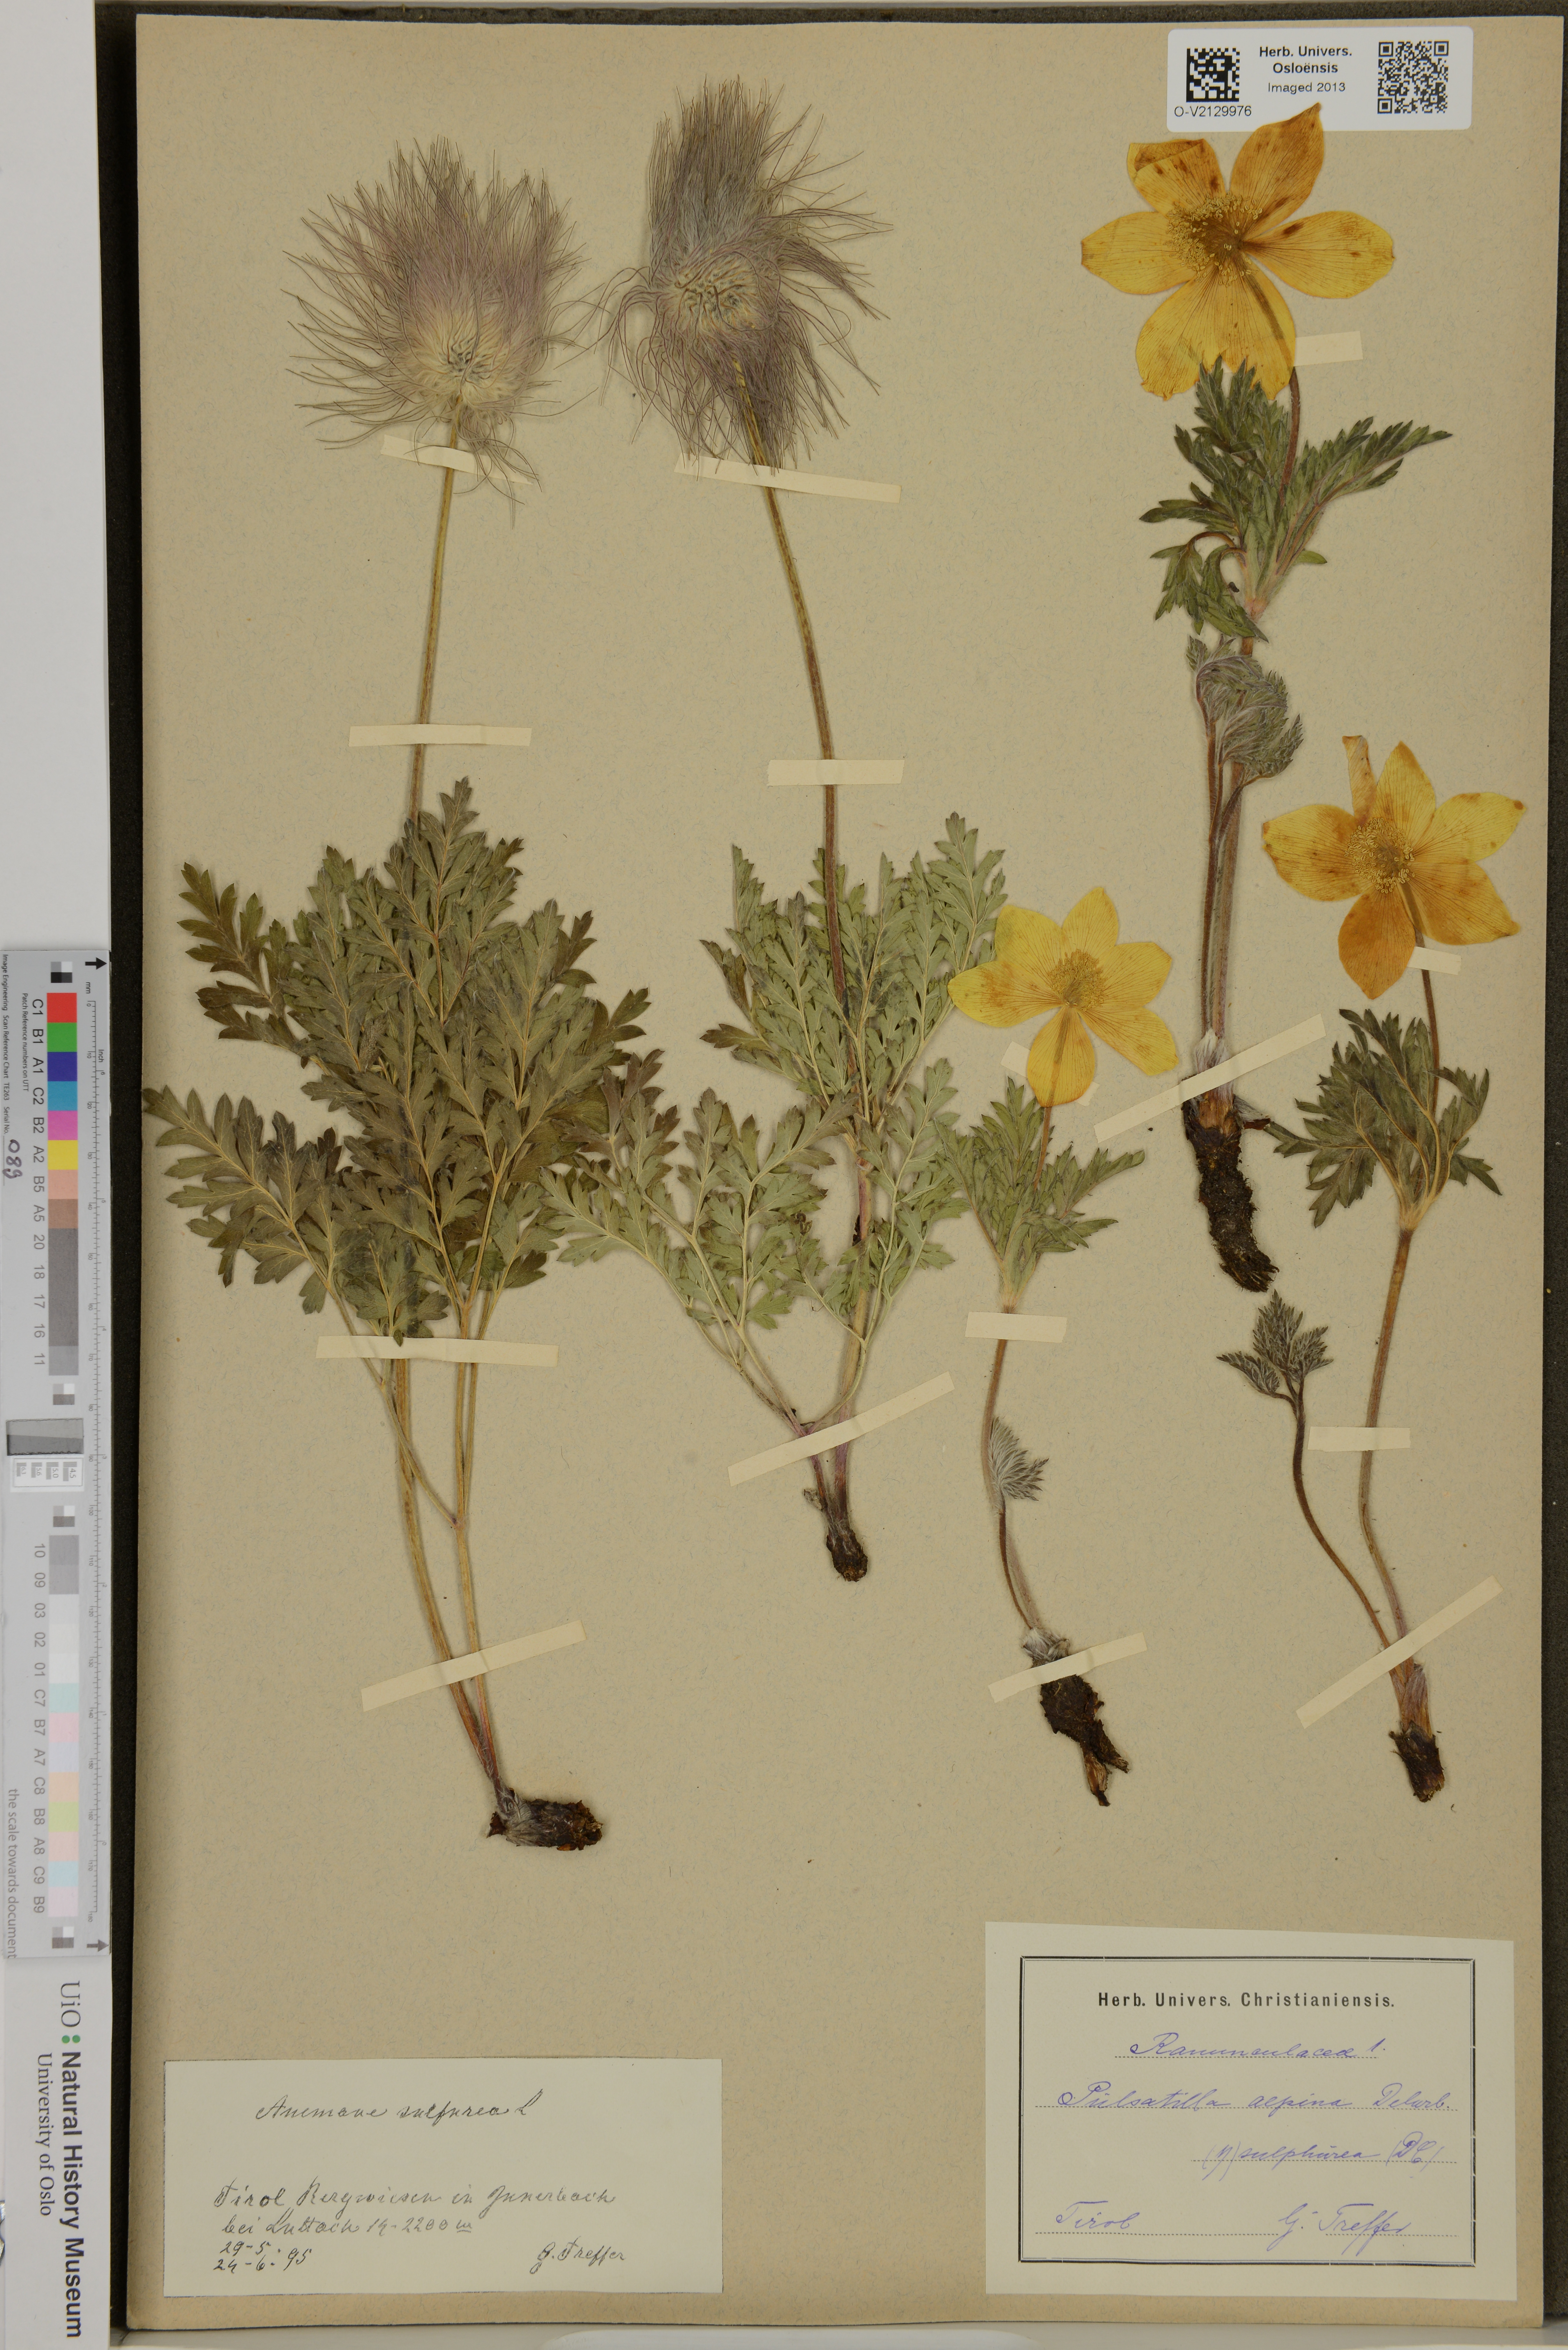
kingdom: Plantae
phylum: Tracheophyta
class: Magnoliopsida
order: Ranunculales
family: Ranunculaceae
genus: Pulsatilla
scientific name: Pulsatilla alpina
